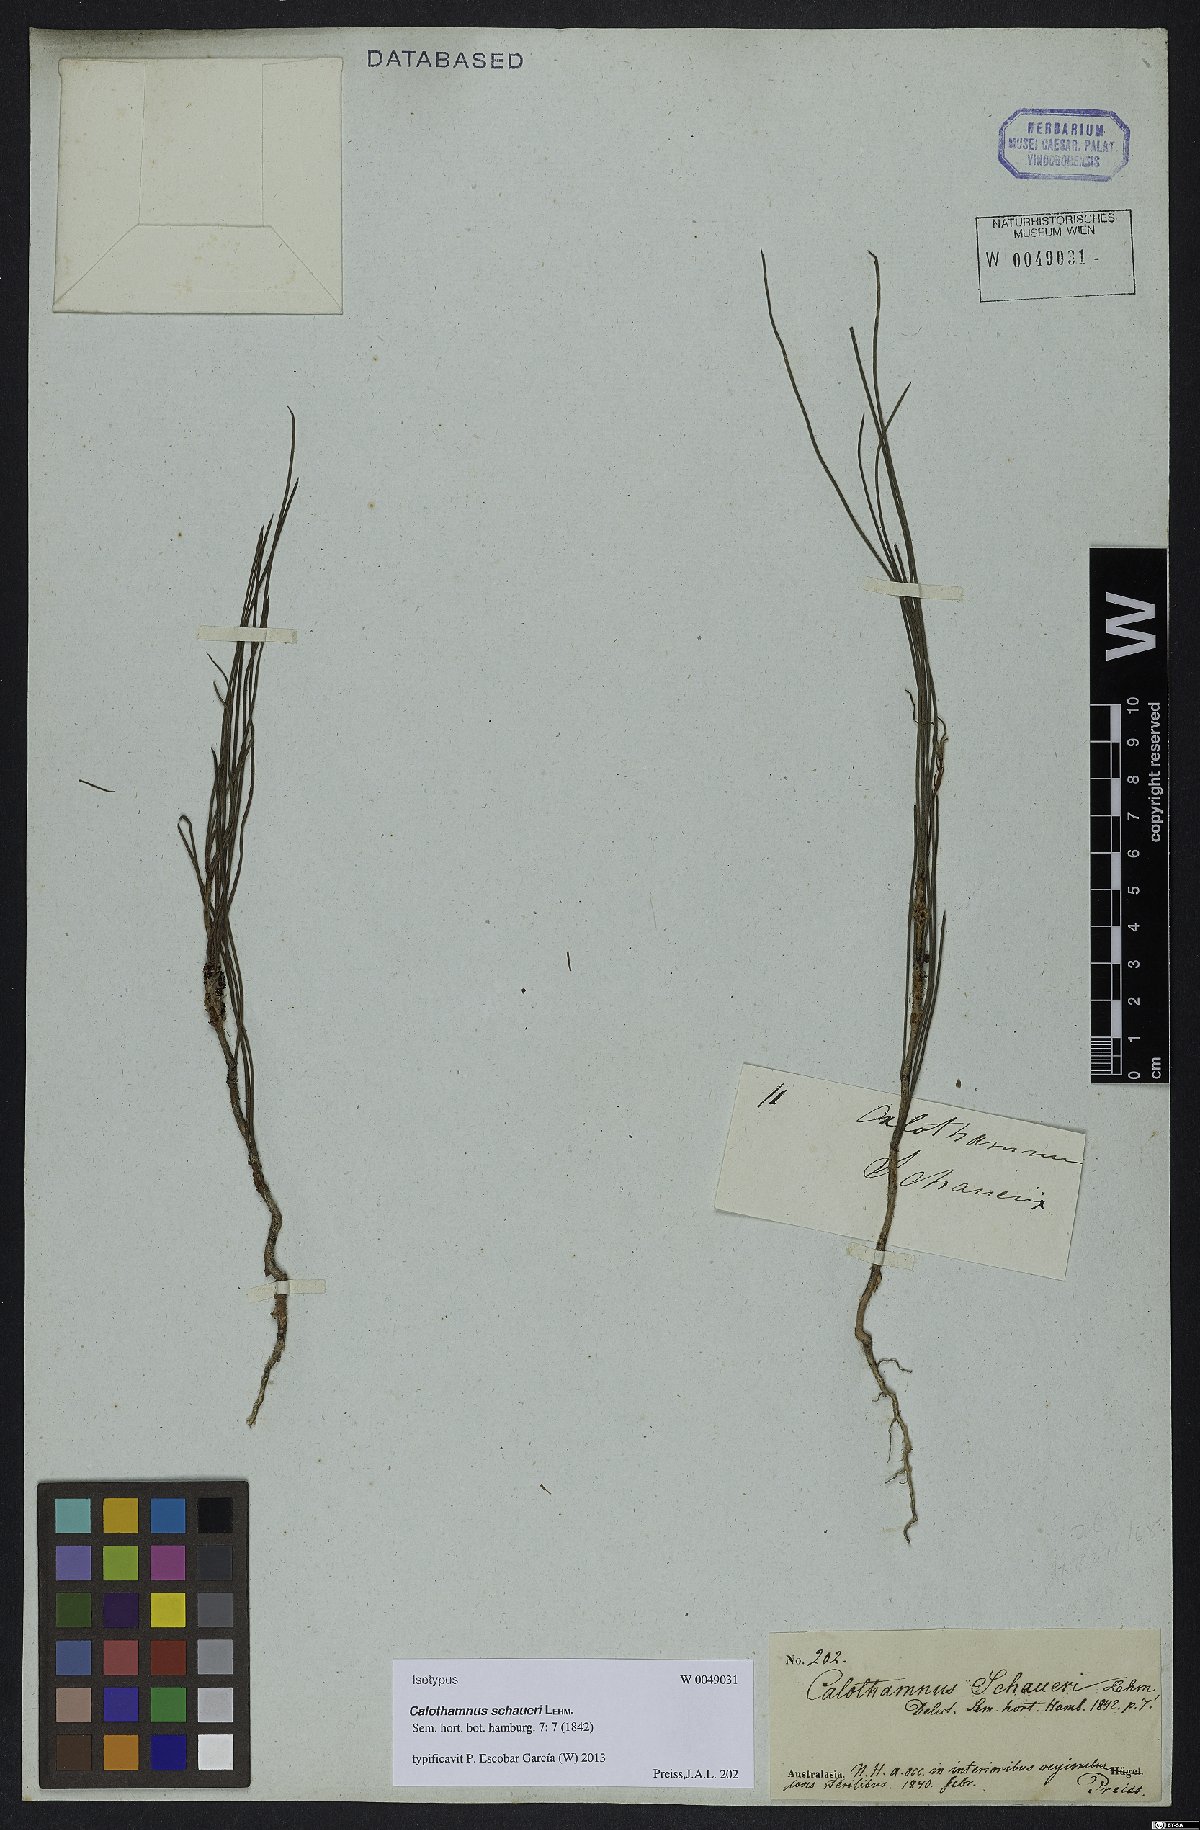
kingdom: Plantae
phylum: Tracheophyta
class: Magnoliopsida
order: Myrtales
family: Myrtaceae
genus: Melaleuca
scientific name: Melaleuca schaueri
